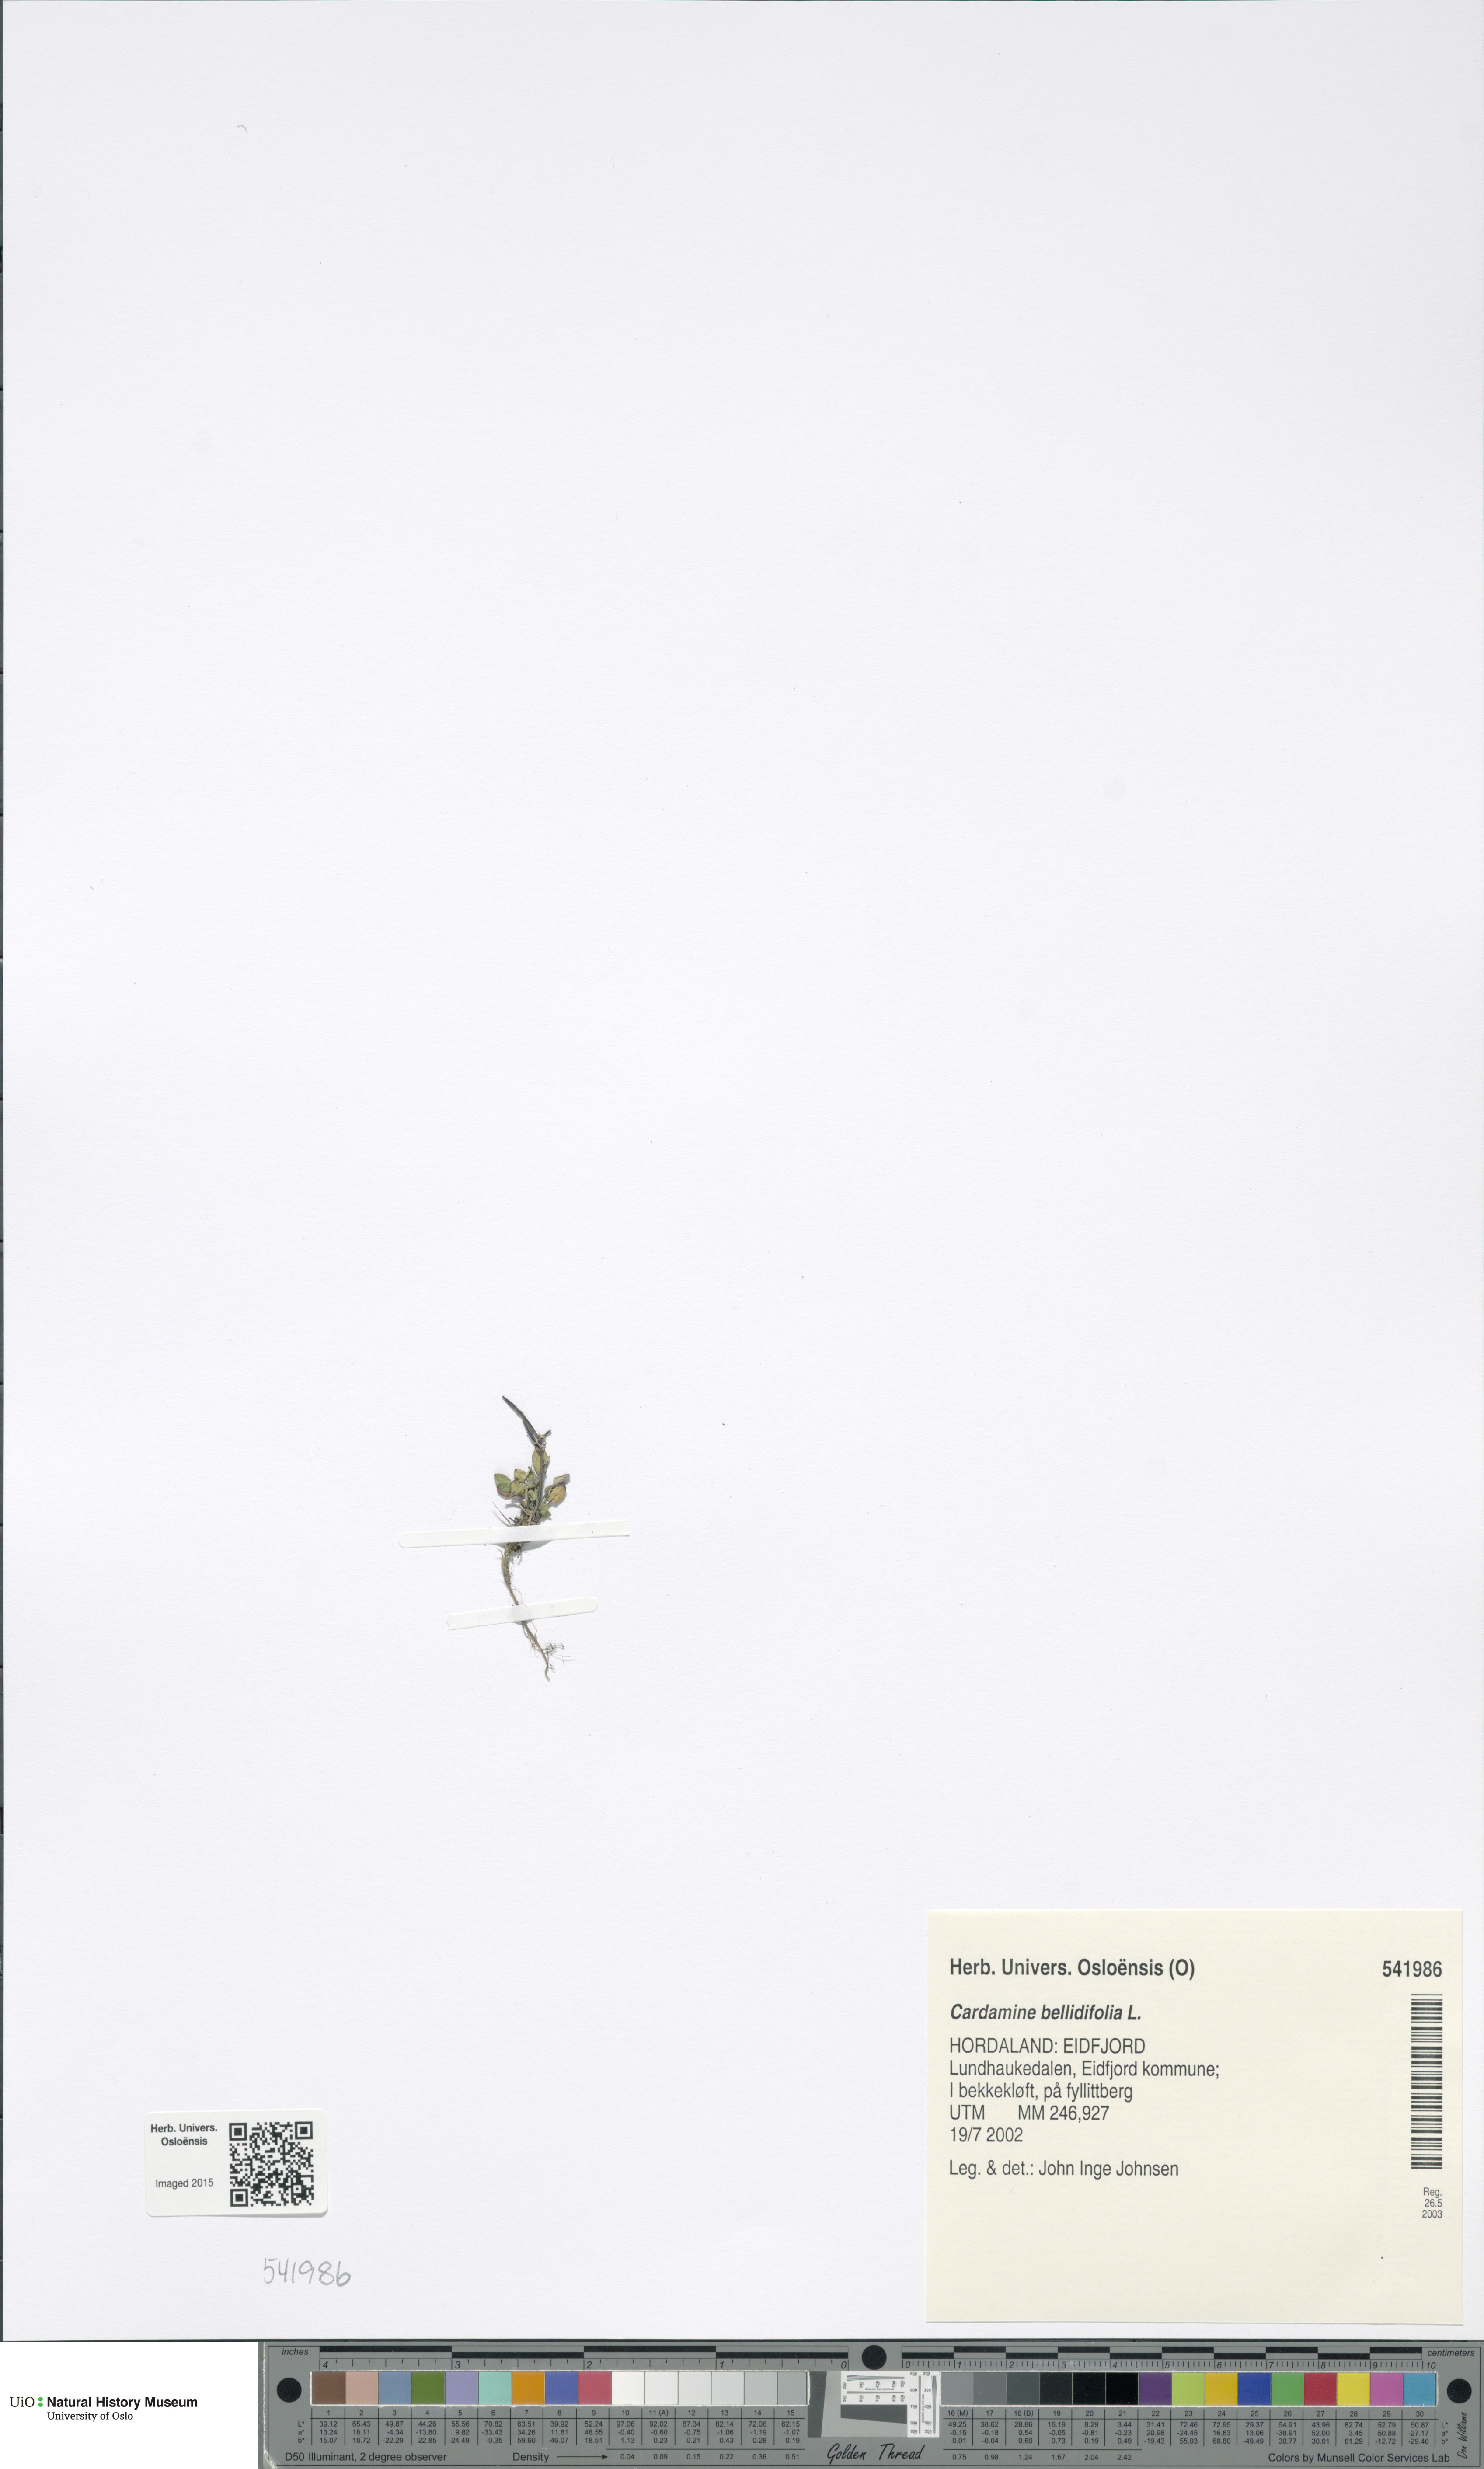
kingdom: Plantae
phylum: Tracheophyta
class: Magnoliopsida
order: Brassicales
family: Brassicaceae
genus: Cardamine
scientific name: Cardamine bellidifolia
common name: Alpine bittercress
